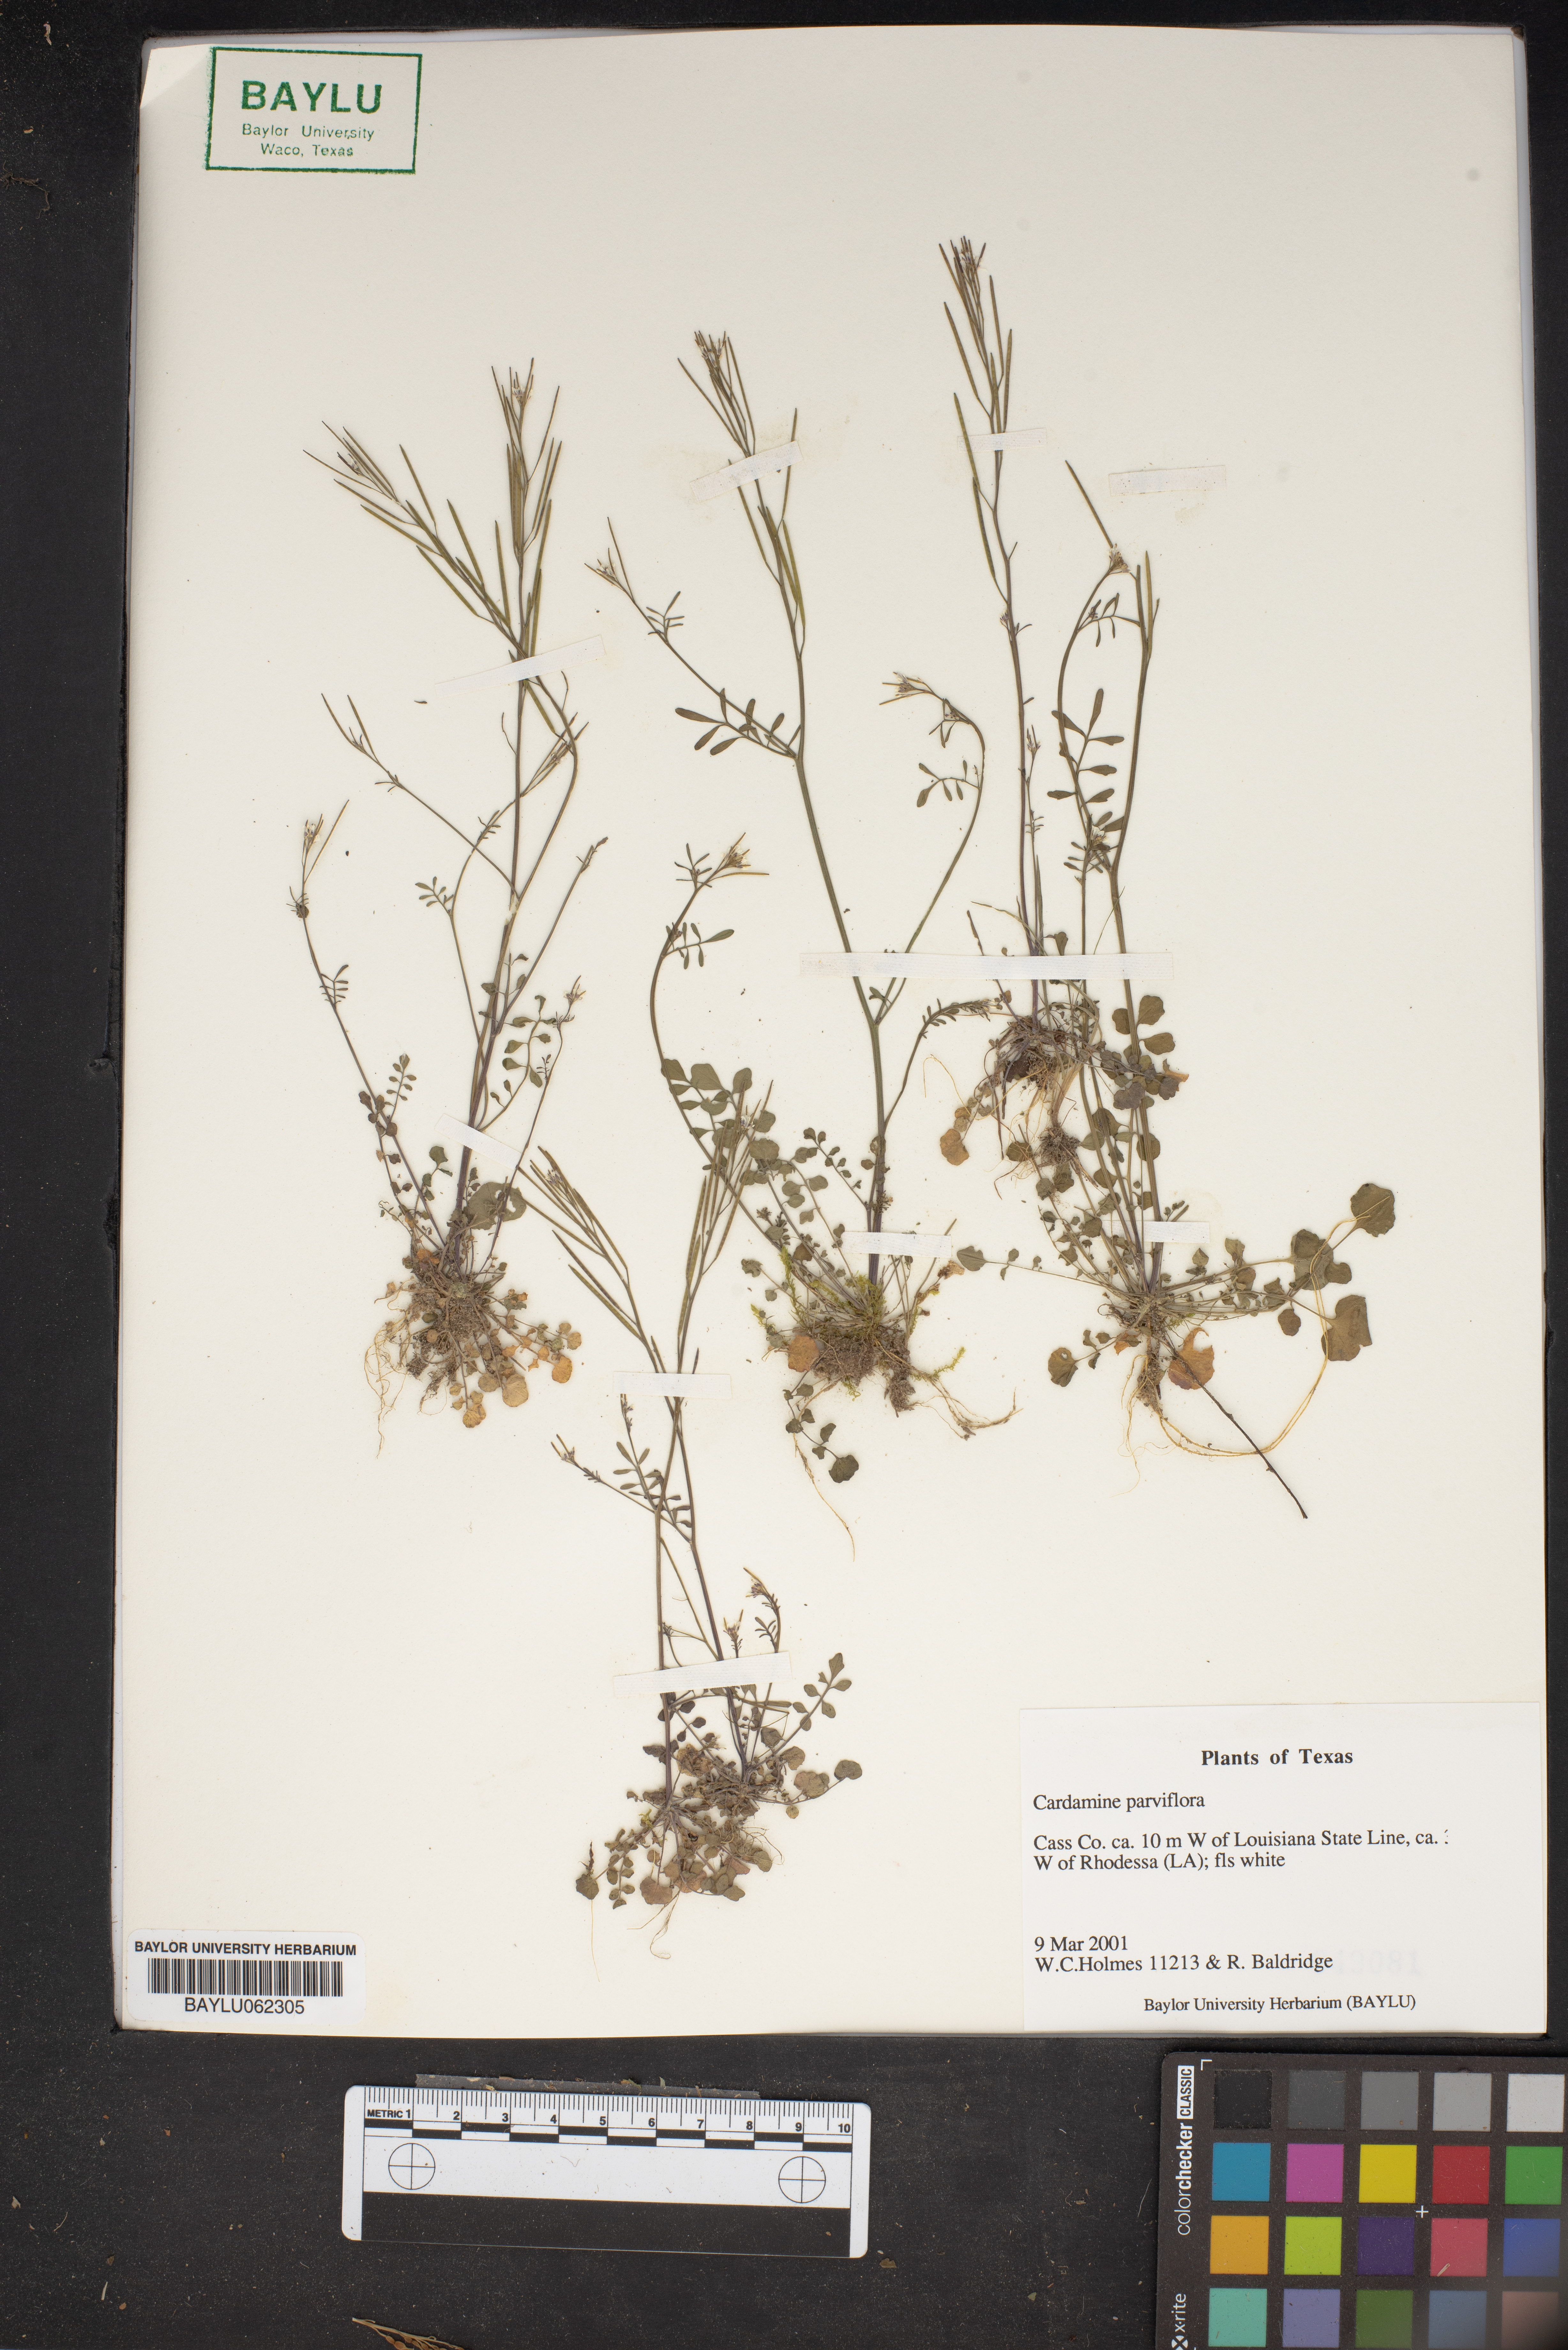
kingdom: Plantae
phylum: Tracheophyta
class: Magnoliopsida
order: Brassicales
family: Brassicaceae
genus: Cardamine
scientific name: Cardamine parviflora
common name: Sand bittercress
